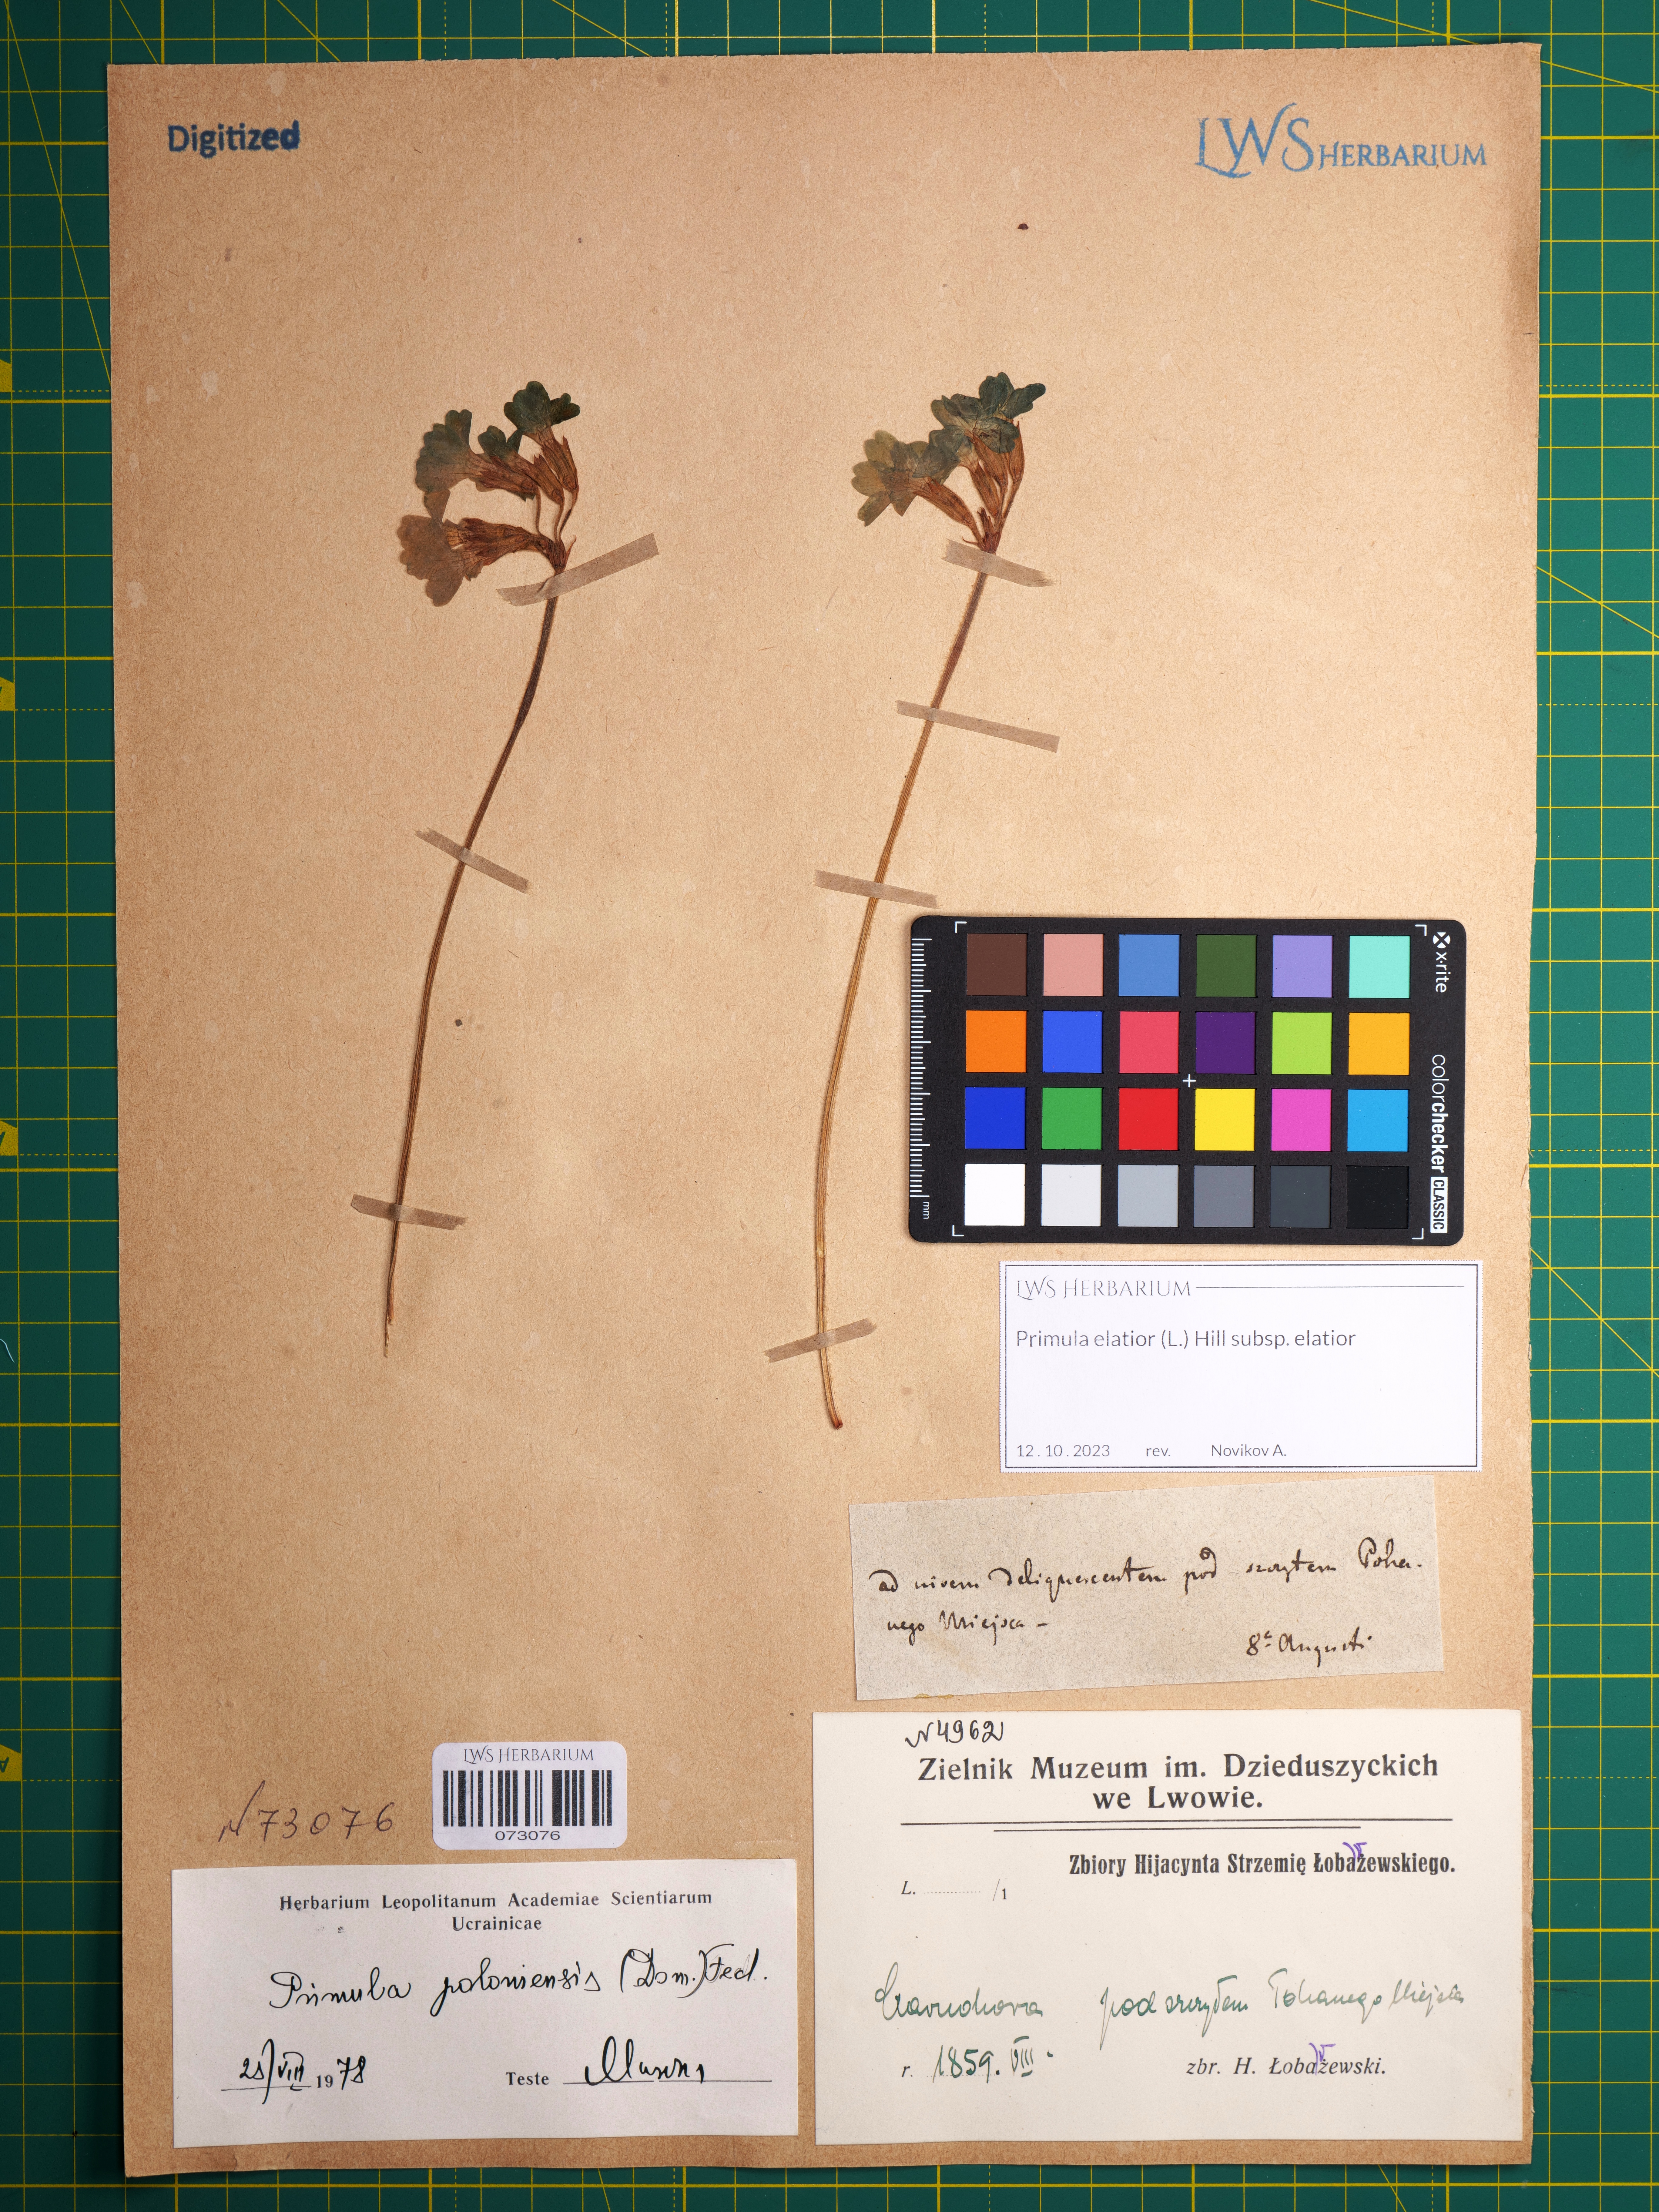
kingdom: Plantae
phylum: Tracheophyta
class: Magnoliopsida
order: Ericales
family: Primulaceae
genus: Primula
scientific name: Primula elatior
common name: Oxlip
